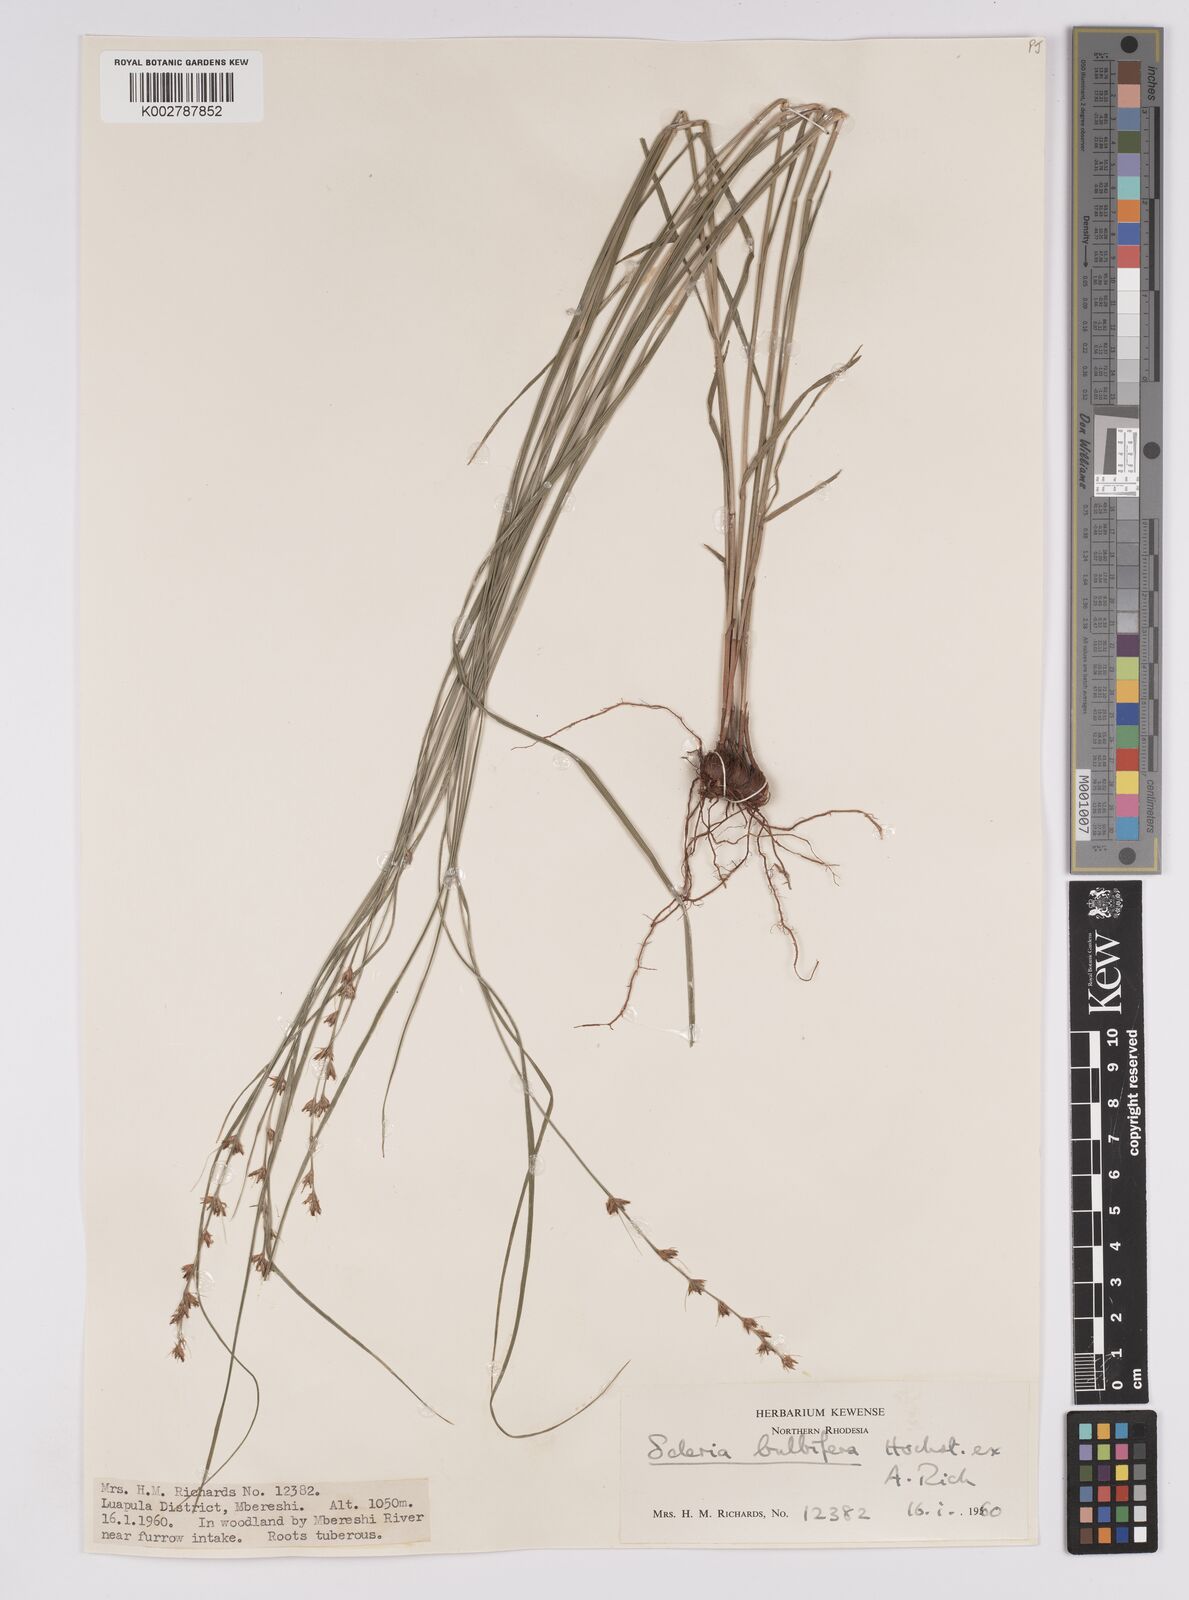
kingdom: Plantae
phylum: Tracheophyta
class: Liliopsida
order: Poales
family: Cyperaceae
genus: Scleria
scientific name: Scleria bulbifera
